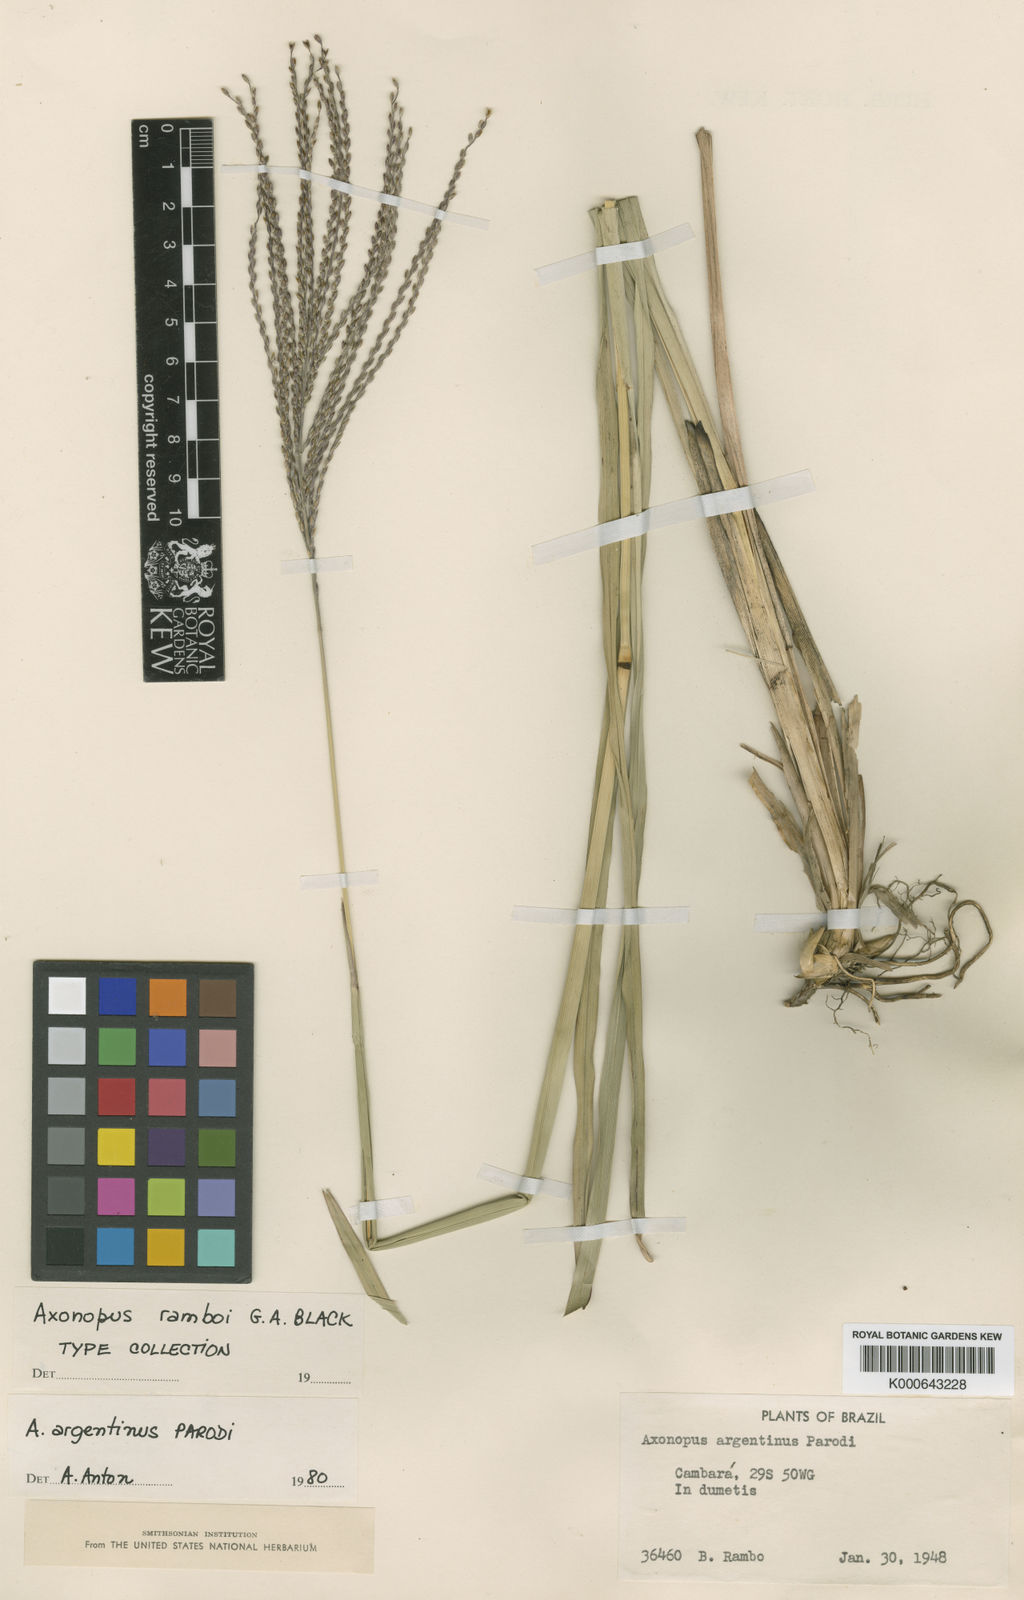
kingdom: Plantae
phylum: Tracheophyta
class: Liliopsida
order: Poales
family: Poaceae
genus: Axonopus
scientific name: Axonopus argentinus
